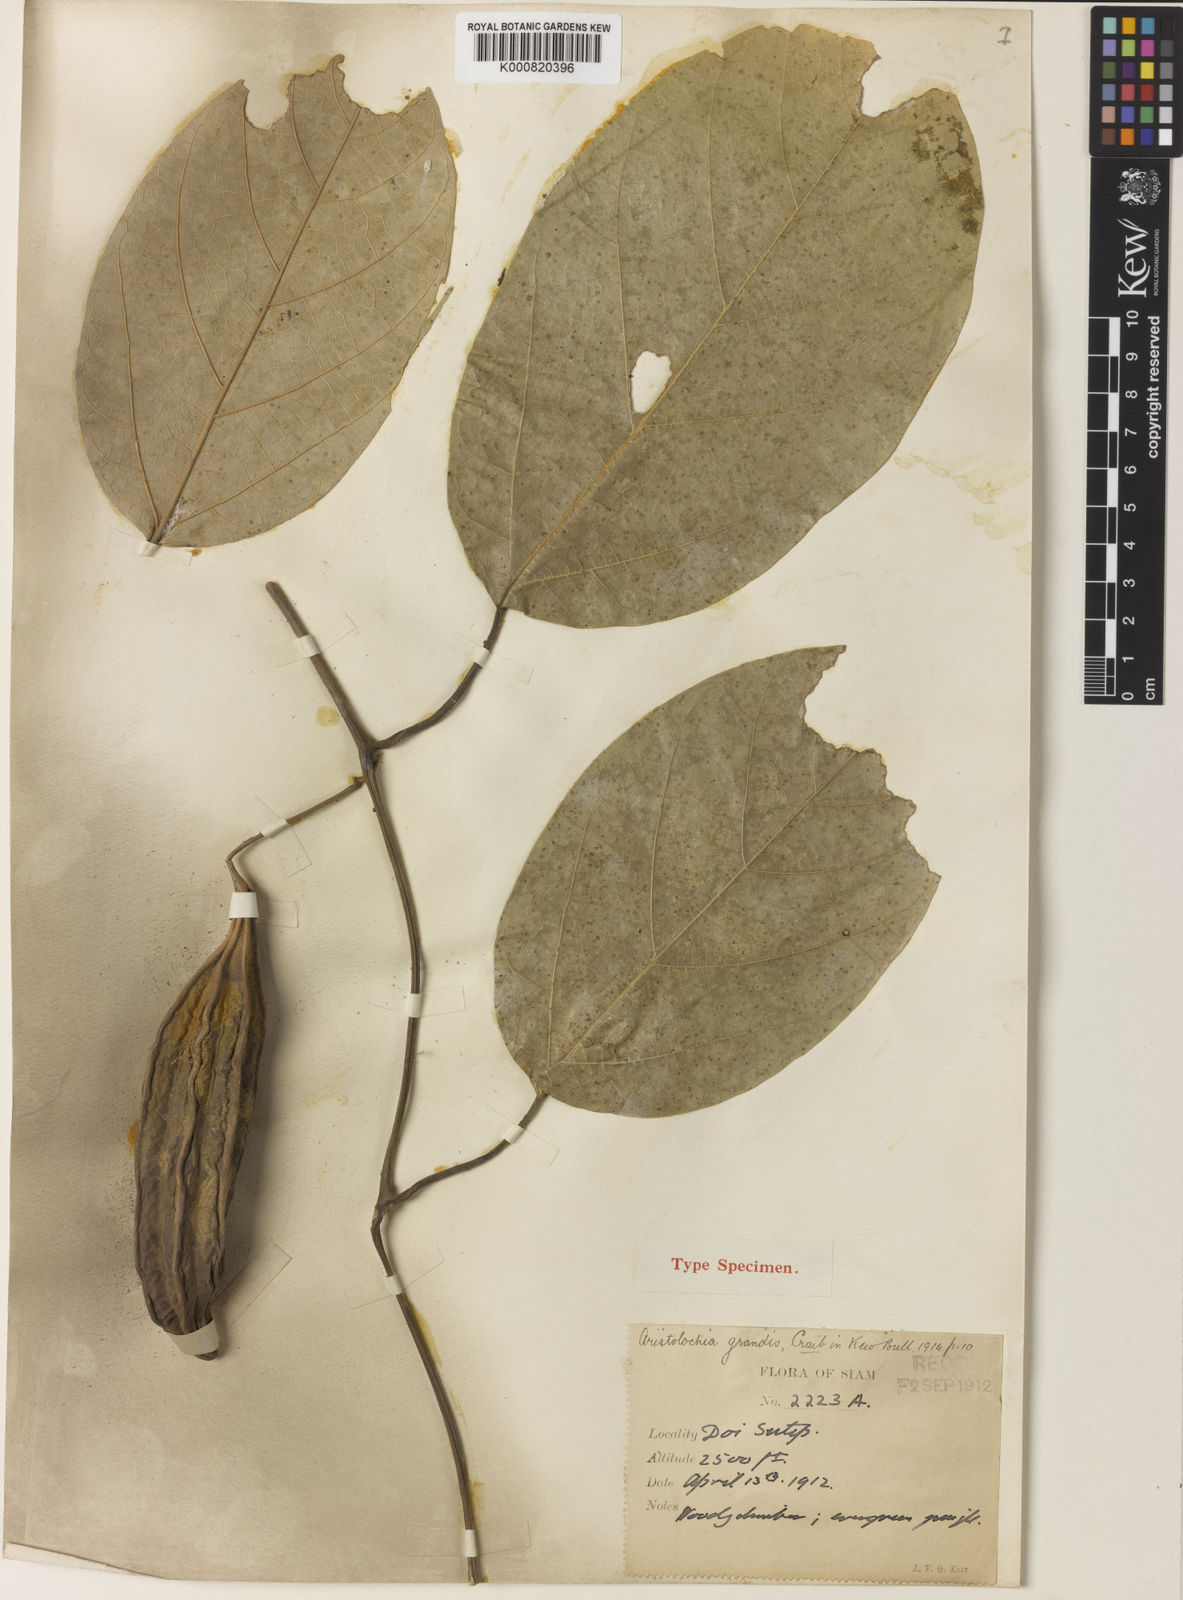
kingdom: Plantae
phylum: Tracheophyta
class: Magnoliopsida
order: Piperales
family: Aristolochiaceae
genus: Isotrema
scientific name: Isotrema
